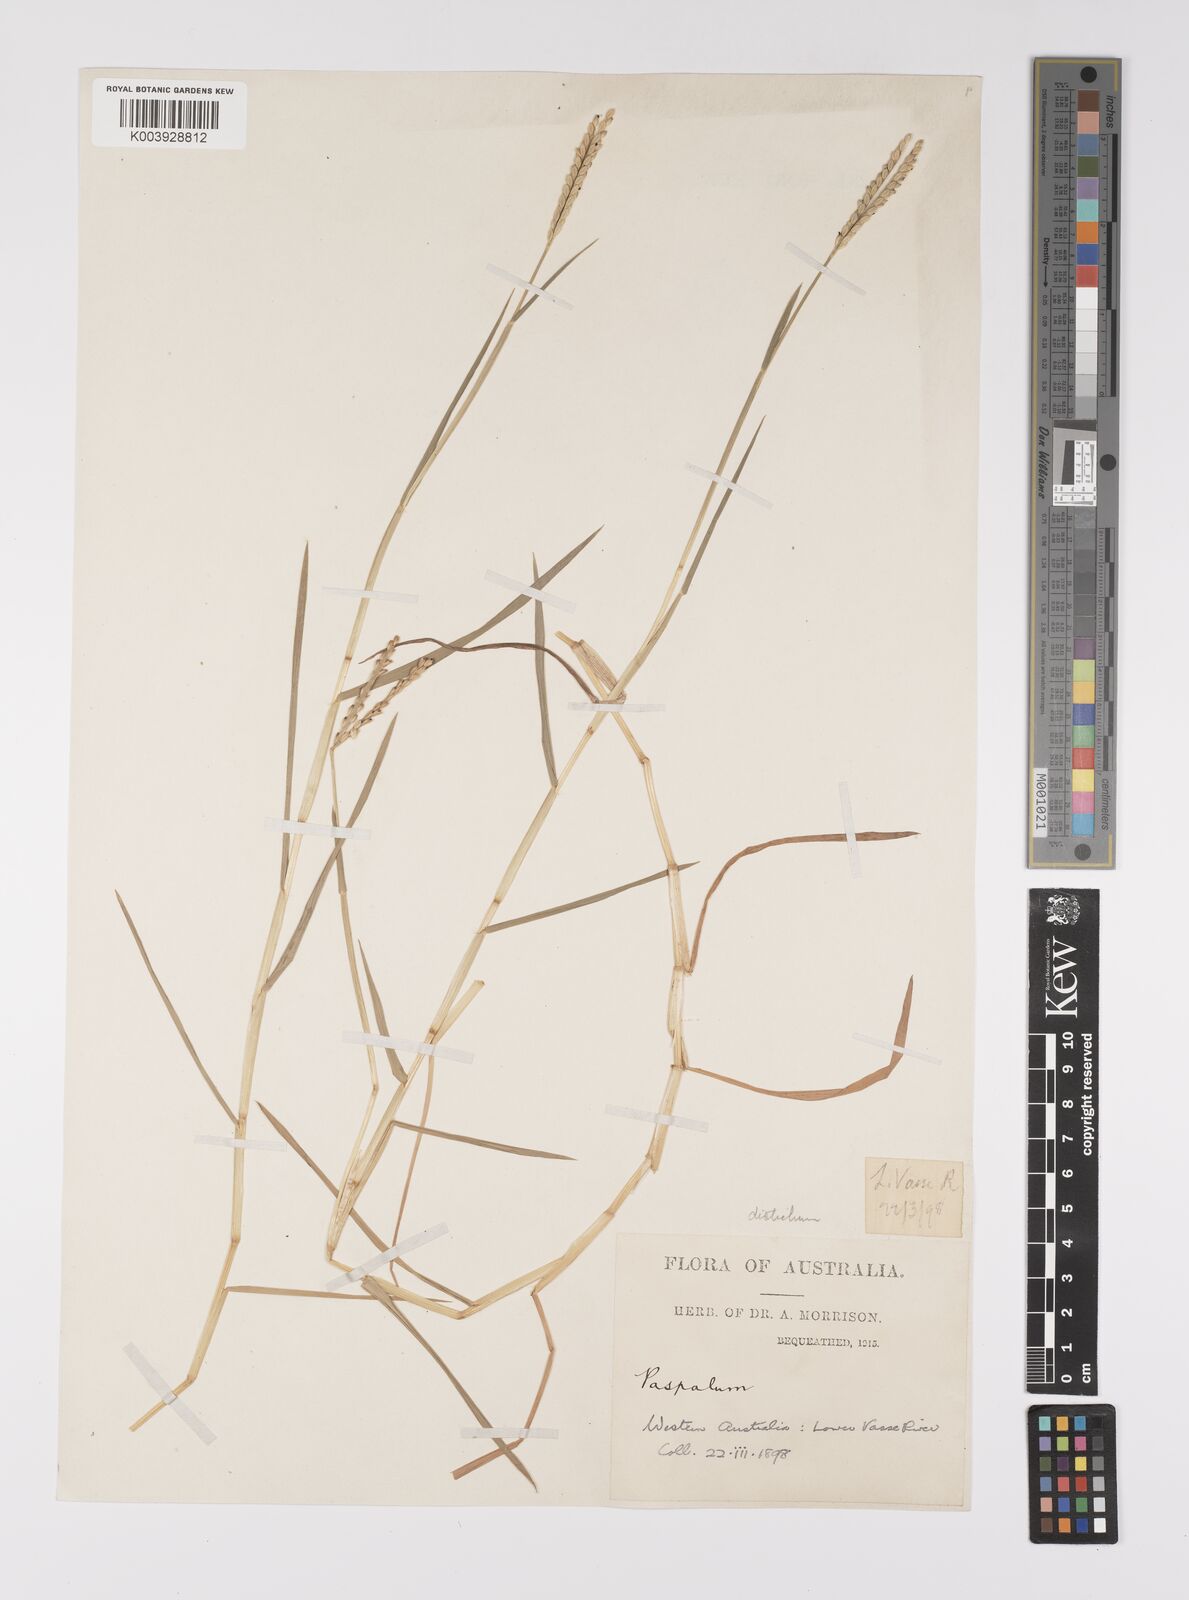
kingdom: Plantae
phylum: Tracheophyta
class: Liliopsida
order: Poales
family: Poaceae
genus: Paspalum
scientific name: Paspalum distichum
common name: Knotgrass
